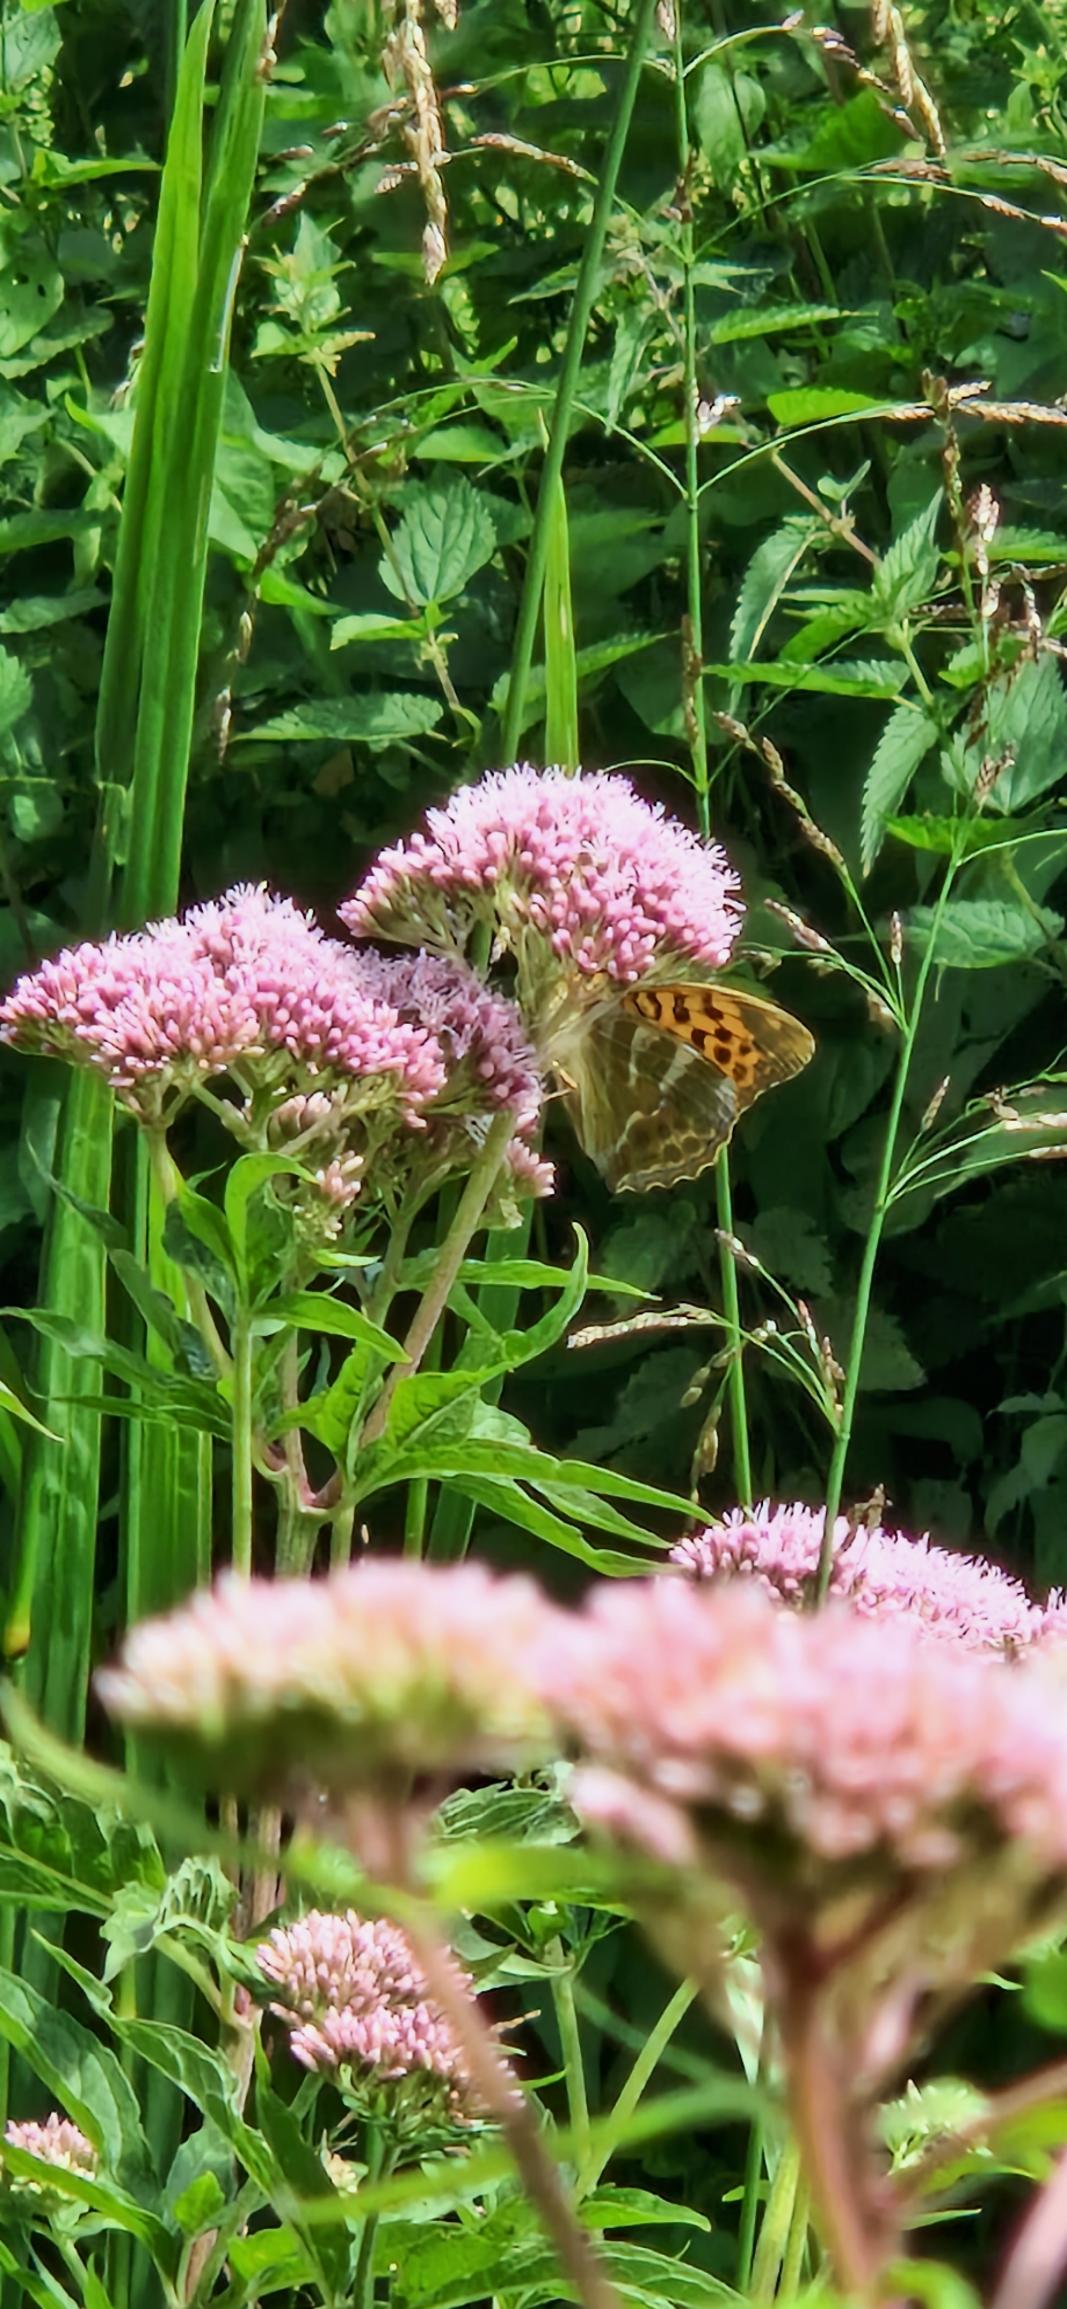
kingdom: Animalia
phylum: Arthropoda
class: Insecta
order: Lepidoptera
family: Nymphalidae
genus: Argynnis
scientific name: Argynnis paphia
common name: Kejserkåbe
